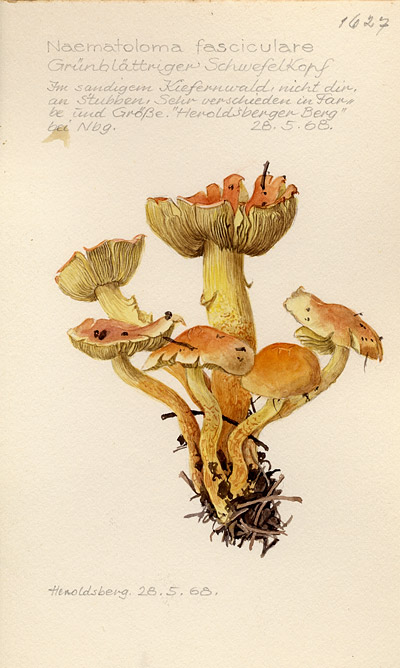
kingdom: Fungi
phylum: Basidiomycota
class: Agaricomycetes
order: Agaricales
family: Strophariaceae
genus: Hypholoma
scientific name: Hypholoma fasciculare
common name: Sulphur tuft
